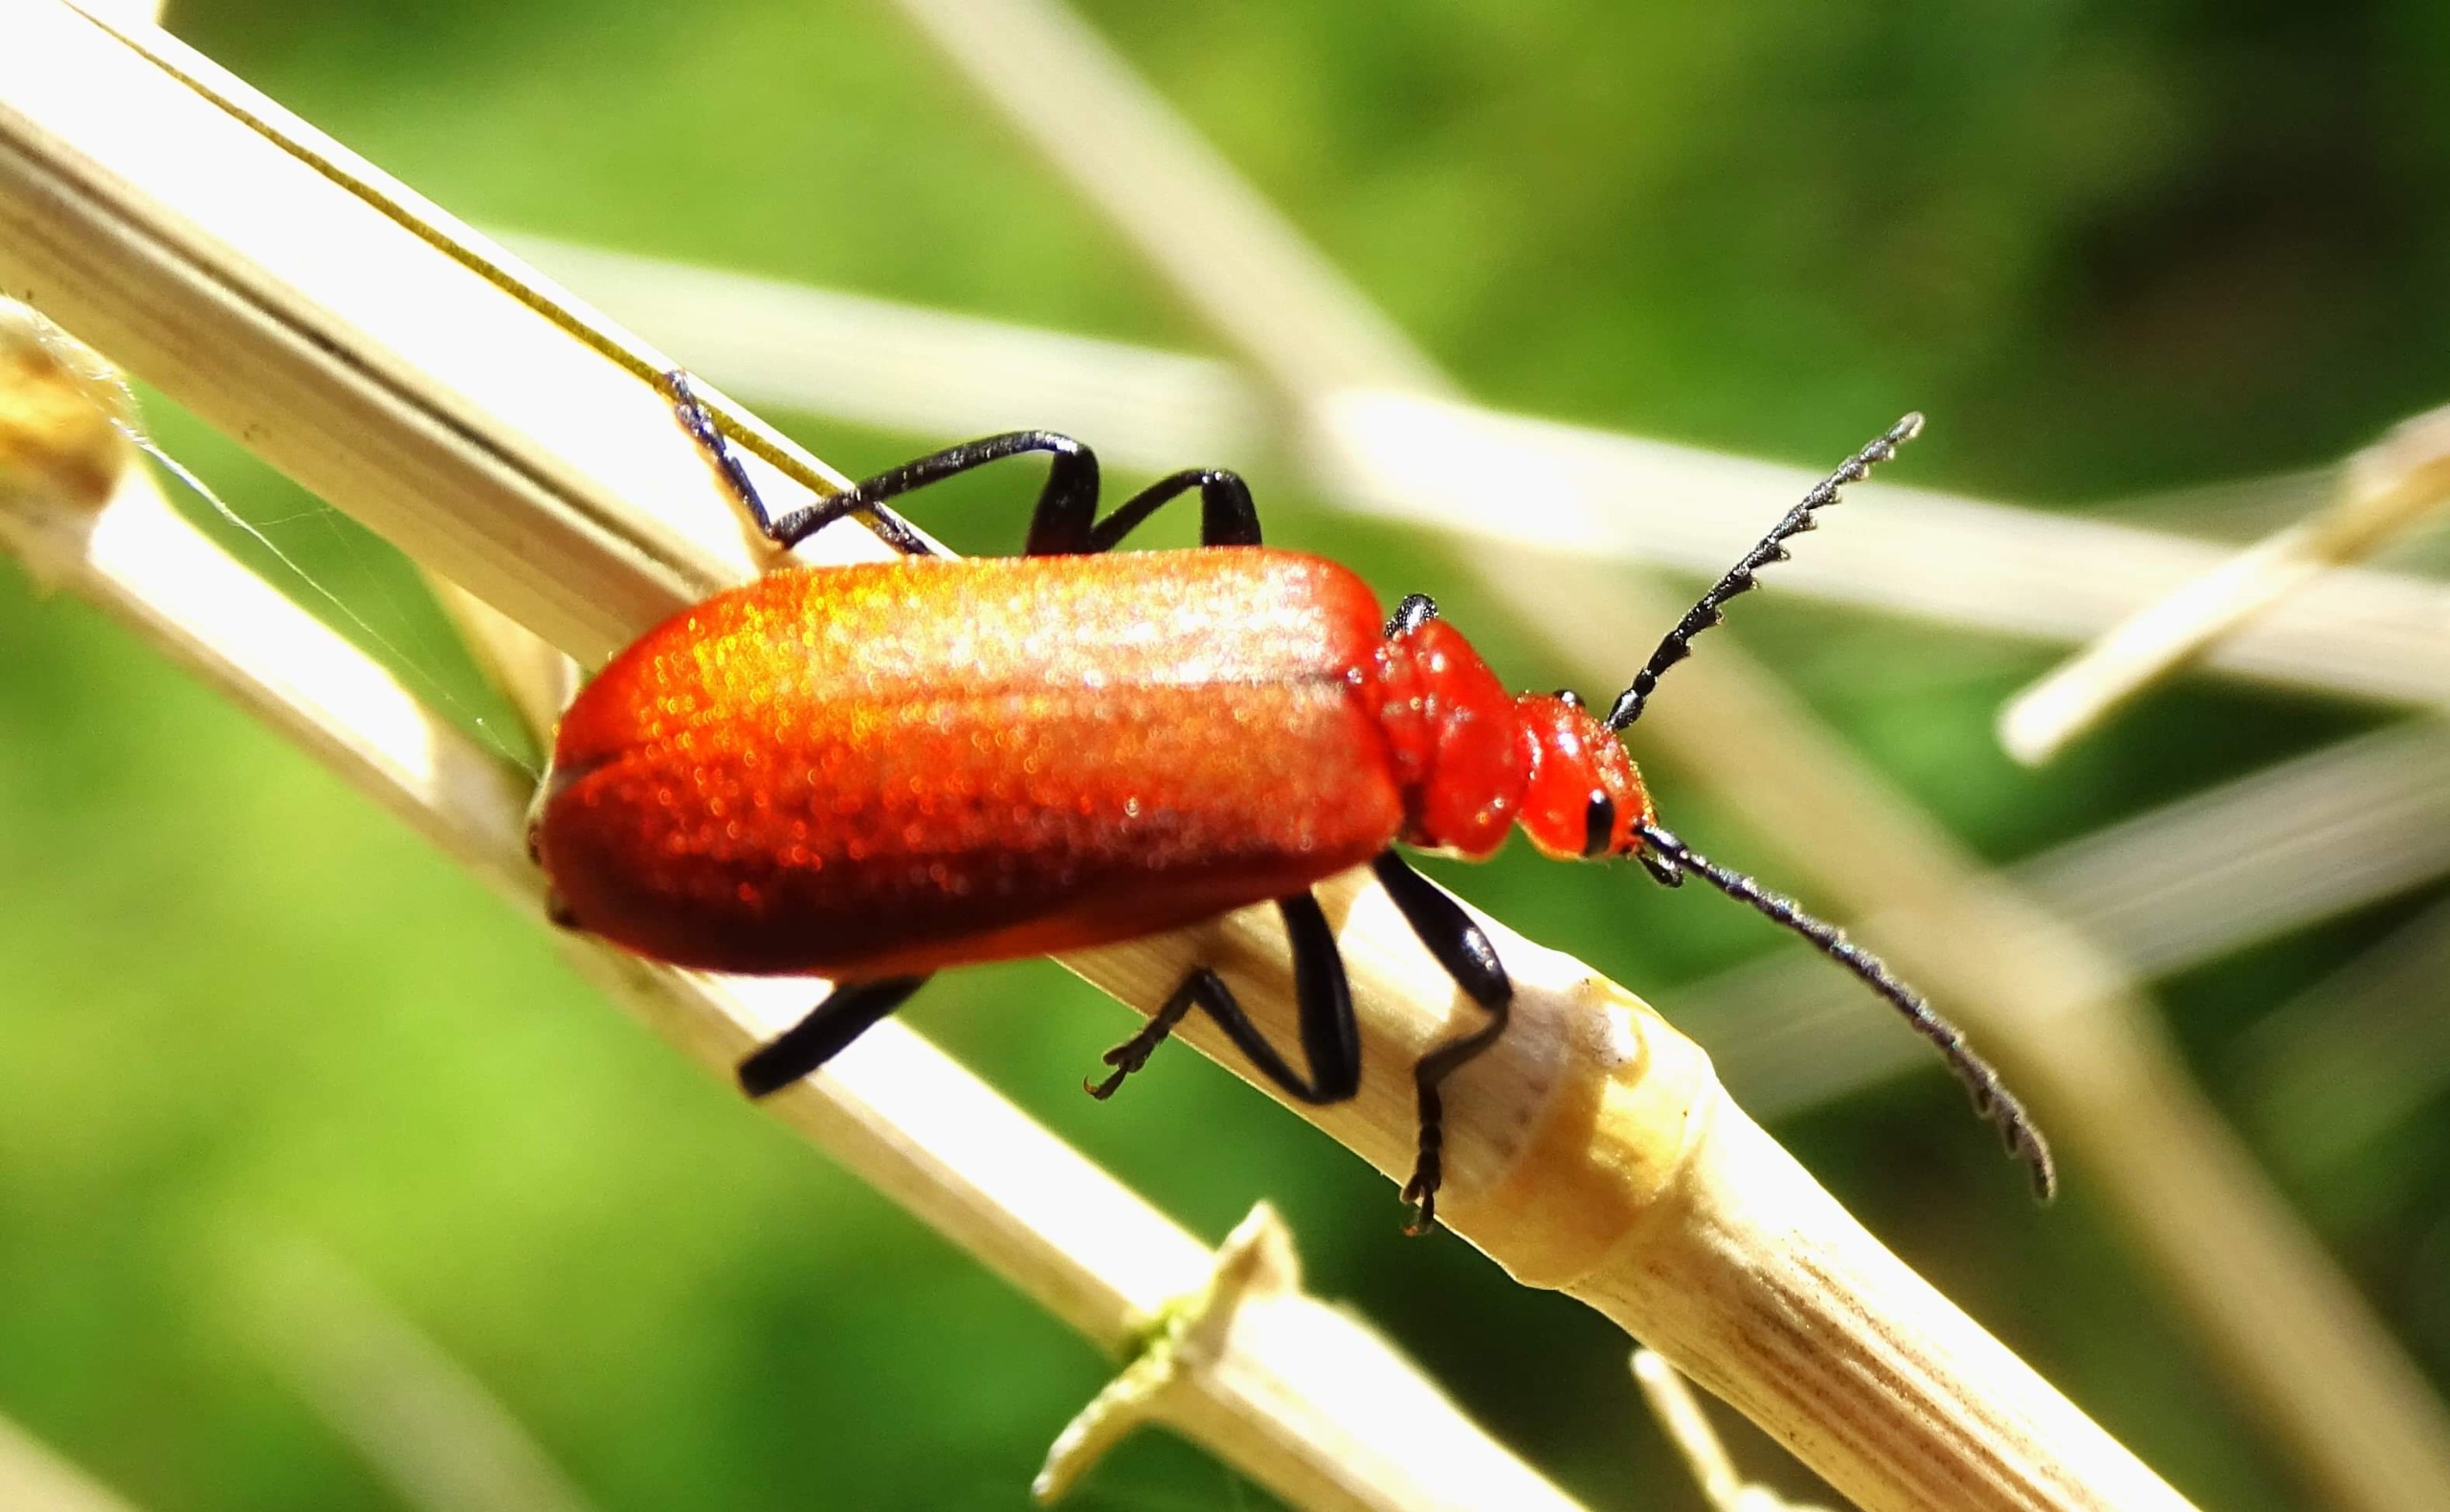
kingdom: Animalia
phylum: Arthropoda
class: Insecta
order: Coleoptera
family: Pyrochroidae
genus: Pyrochroa
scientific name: Pyrochroa serraticornis
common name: Rødhovedet kardinalbille
